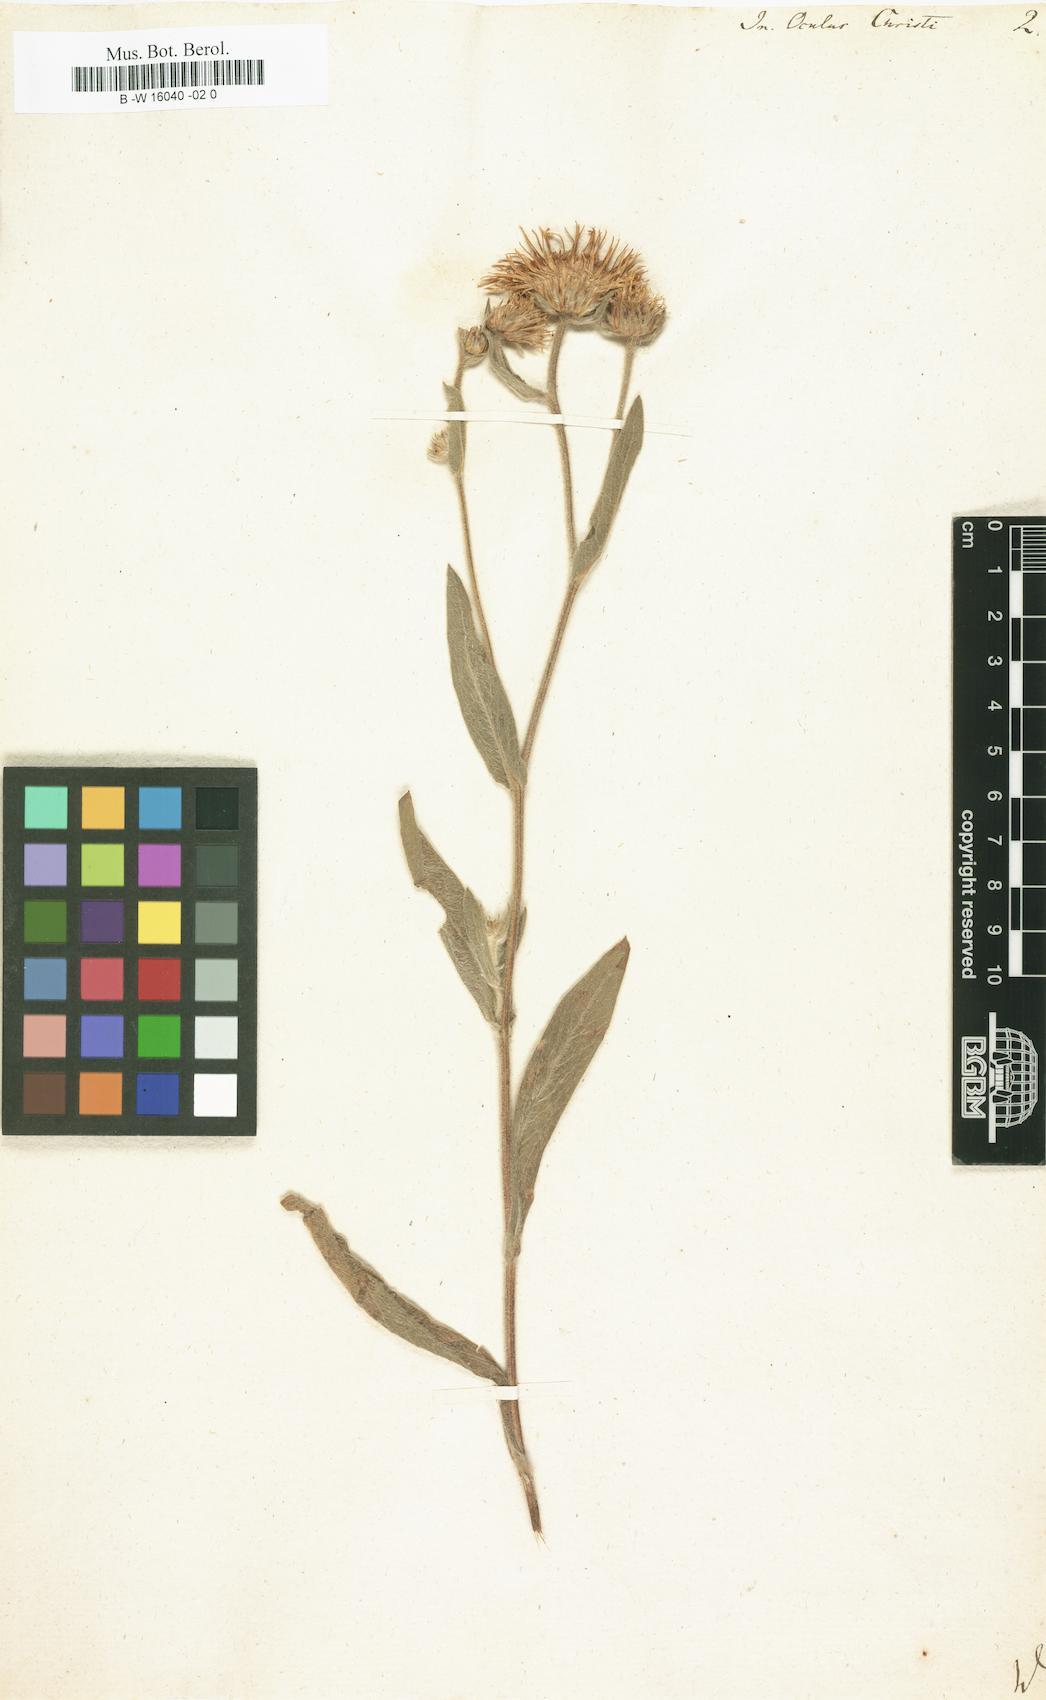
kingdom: Plantae
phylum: Tracheophyta
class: Magnoliopsida
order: Asterales
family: Asteraceae
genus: Inula
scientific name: Inula oculus-christi
